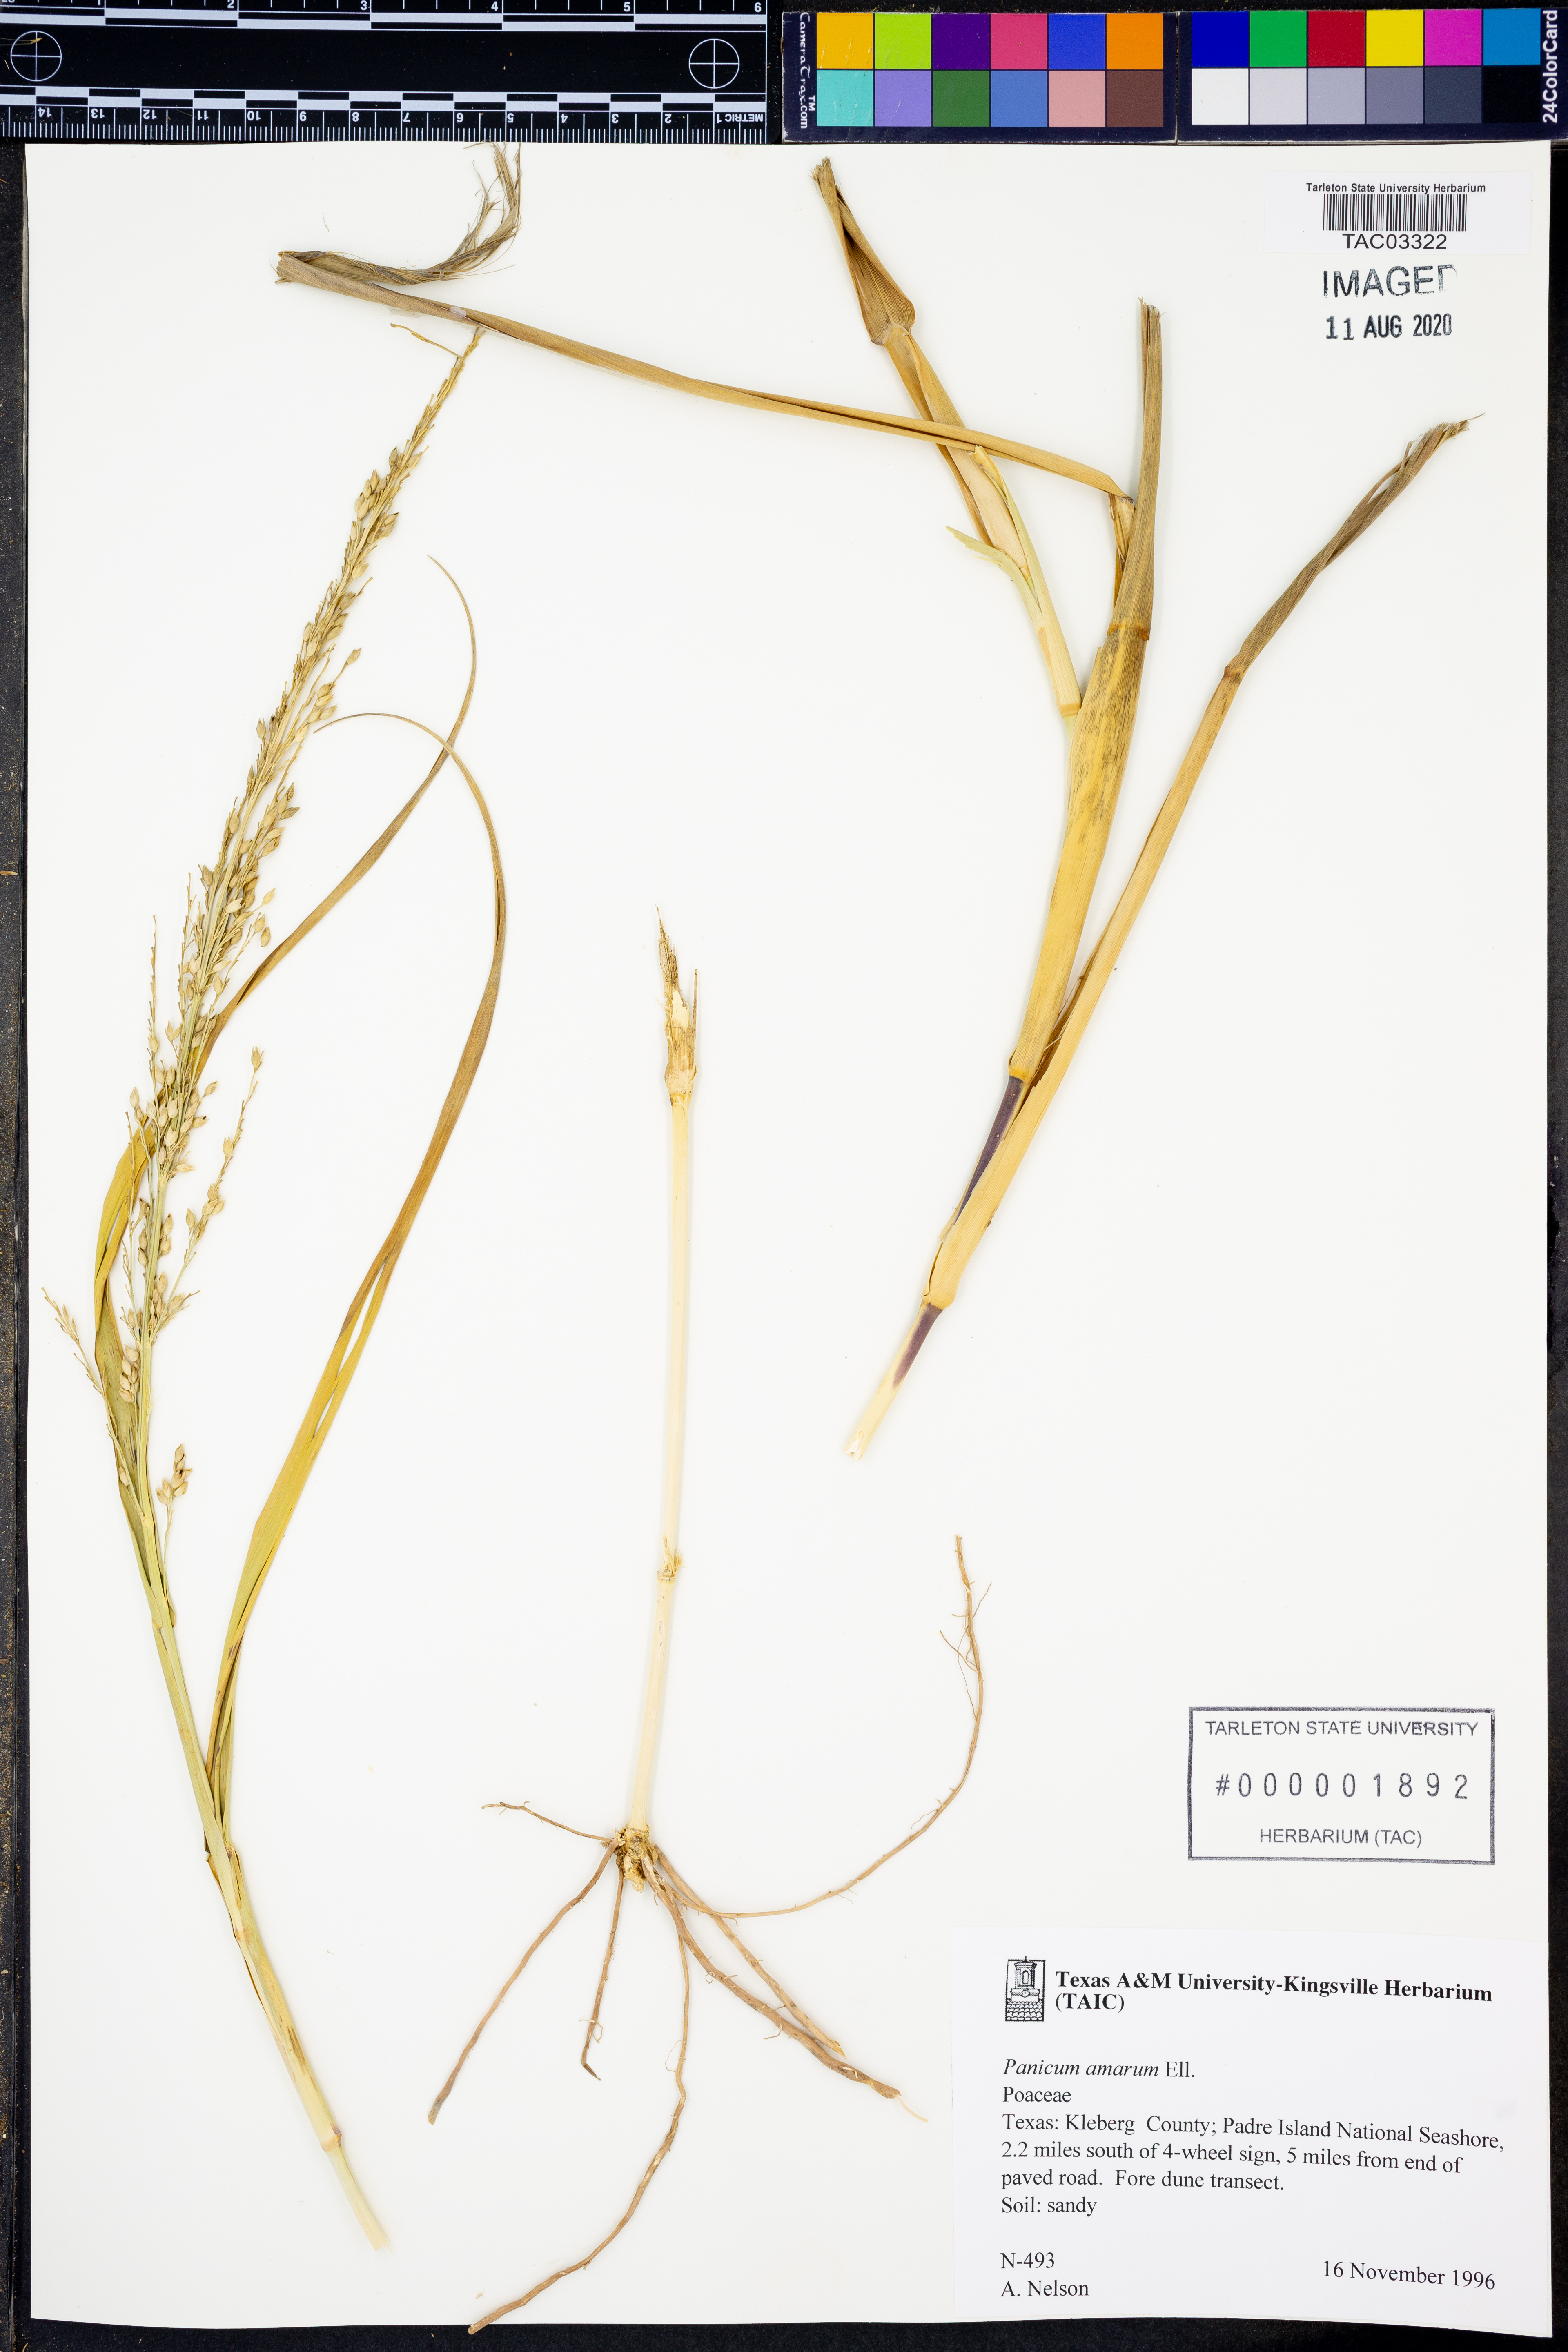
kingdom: Plantae
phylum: Tracheophyta
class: Liliopsida
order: Poales
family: Poaceae
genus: Panicum
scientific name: Panicum amarum
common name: Bitter panicum
